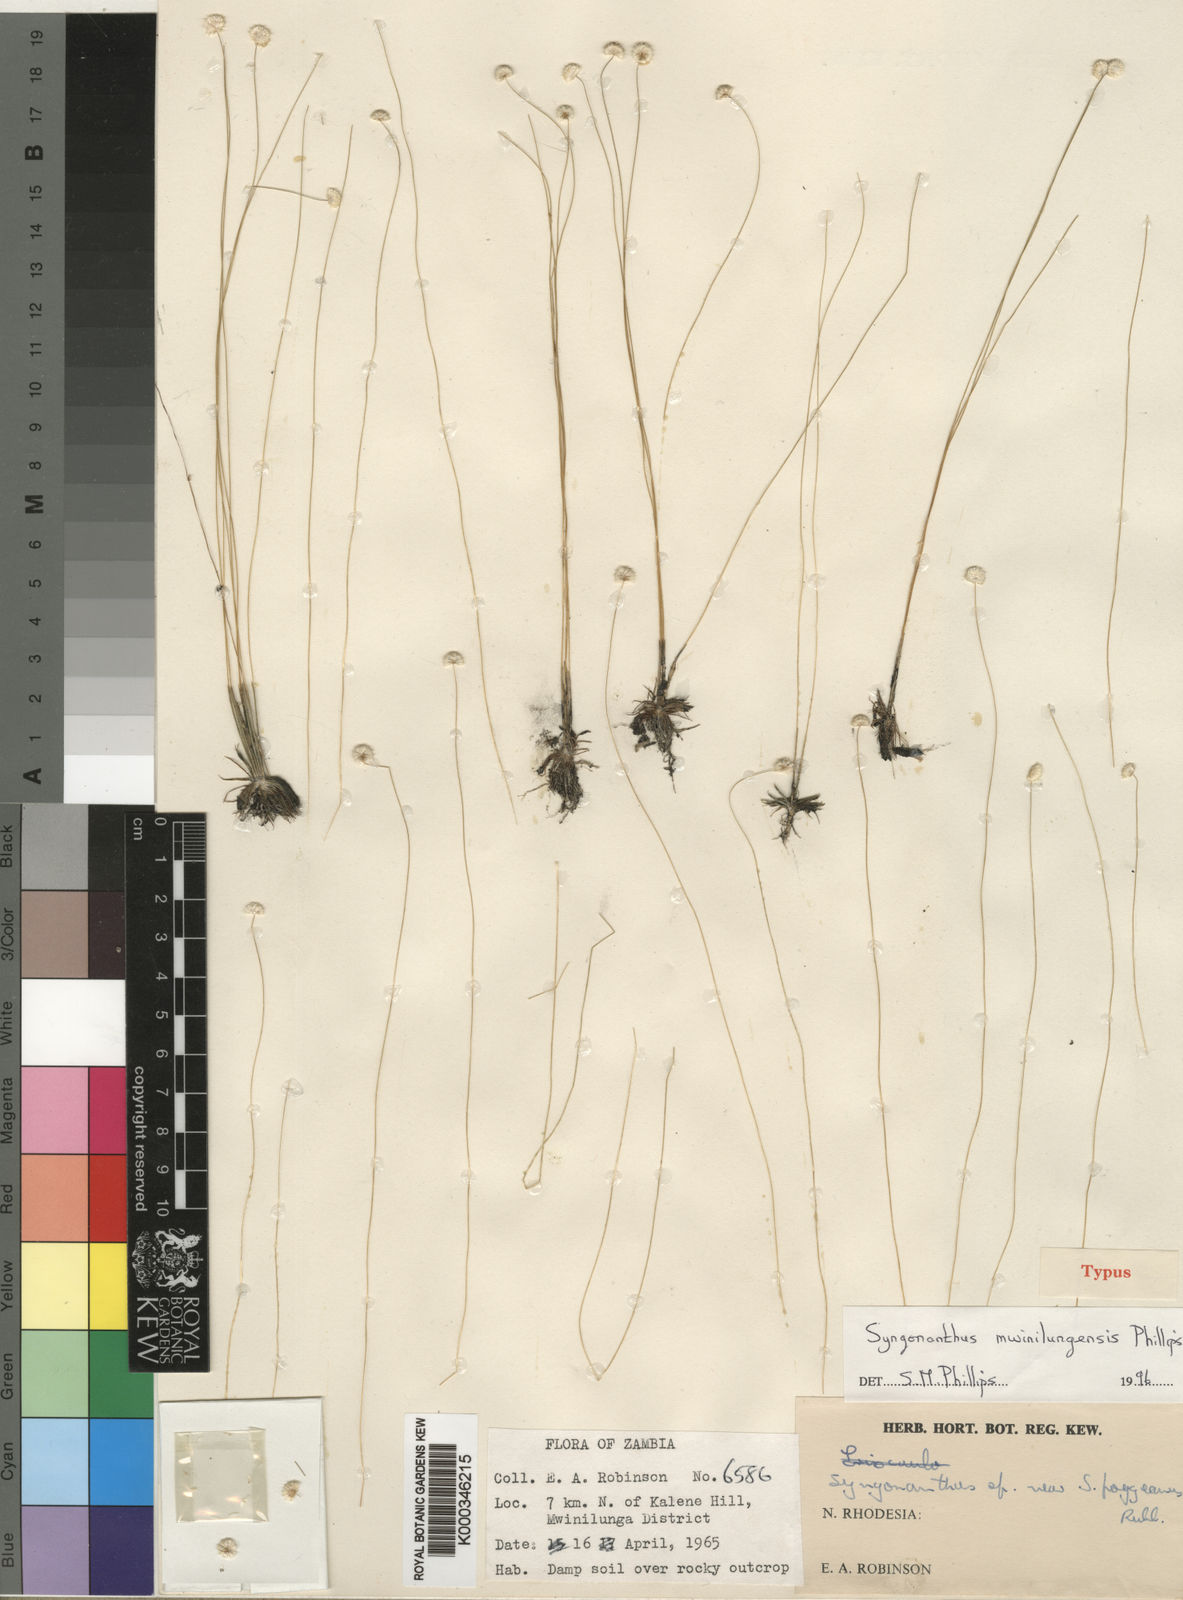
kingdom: Plantae
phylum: Tracheophyta
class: Liliopsida
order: Poales
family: Eriocaulaceae
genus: Syngonanthus
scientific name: Syngonanthus mwinilungensis
